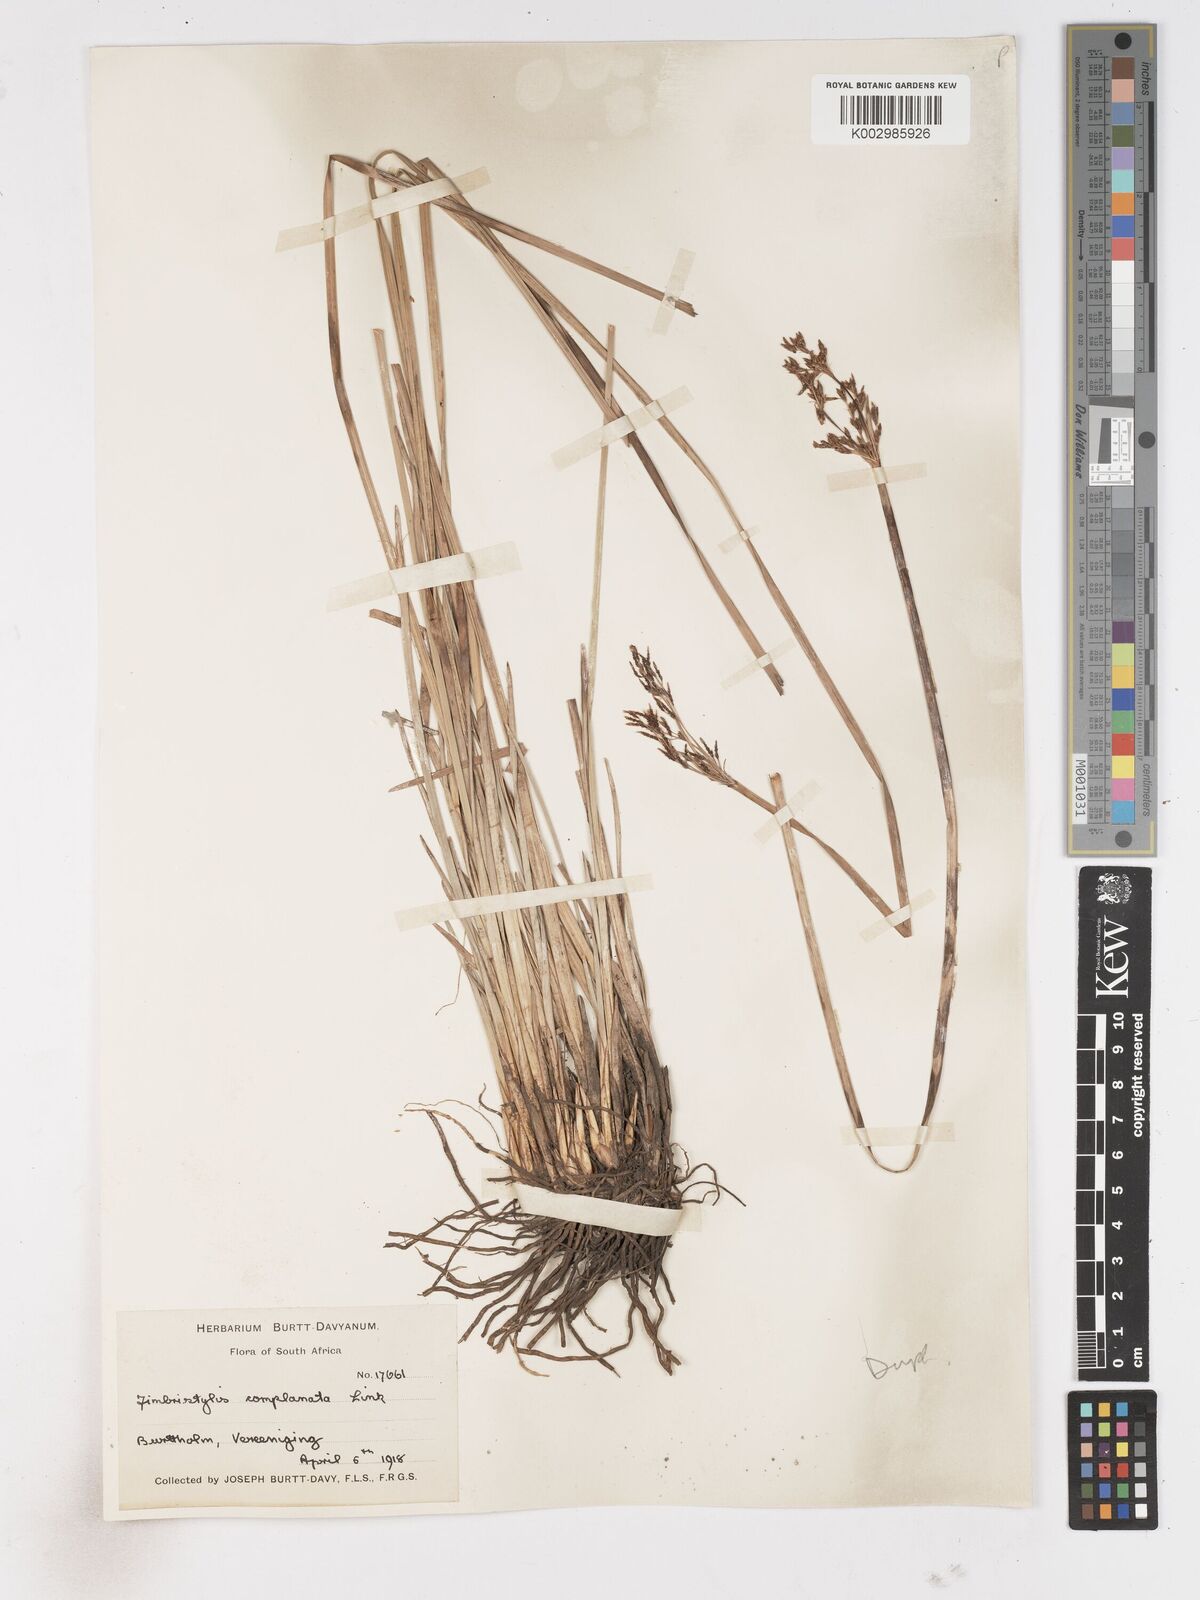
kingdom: Plantae
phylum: Tracheophyta
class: Liliopsida
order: Poales
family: Cyperaceae
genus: Fimbristylis
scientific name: Fimbristylis complanata
